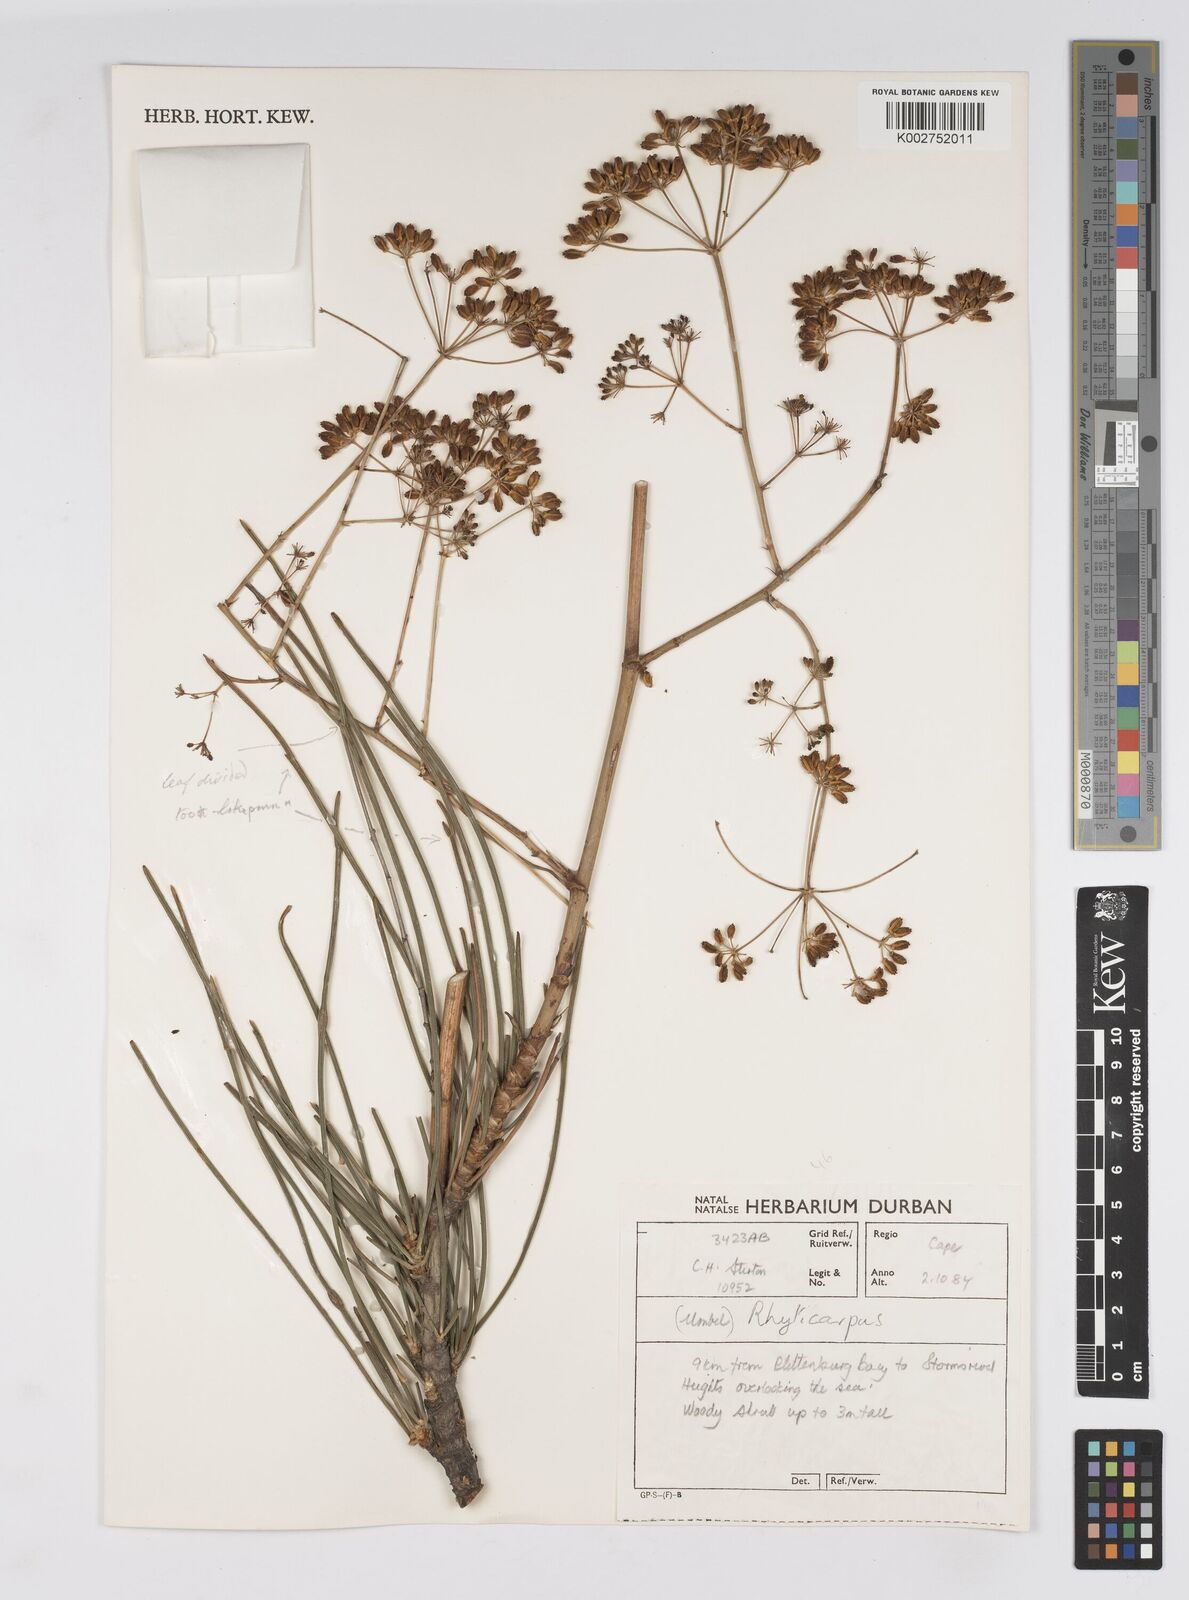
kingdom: Plantae
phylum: Tracheophyta
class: Magnoliopsida
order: Apiales
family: Apiaceae
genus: Anginon
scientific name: Anginon difforme
